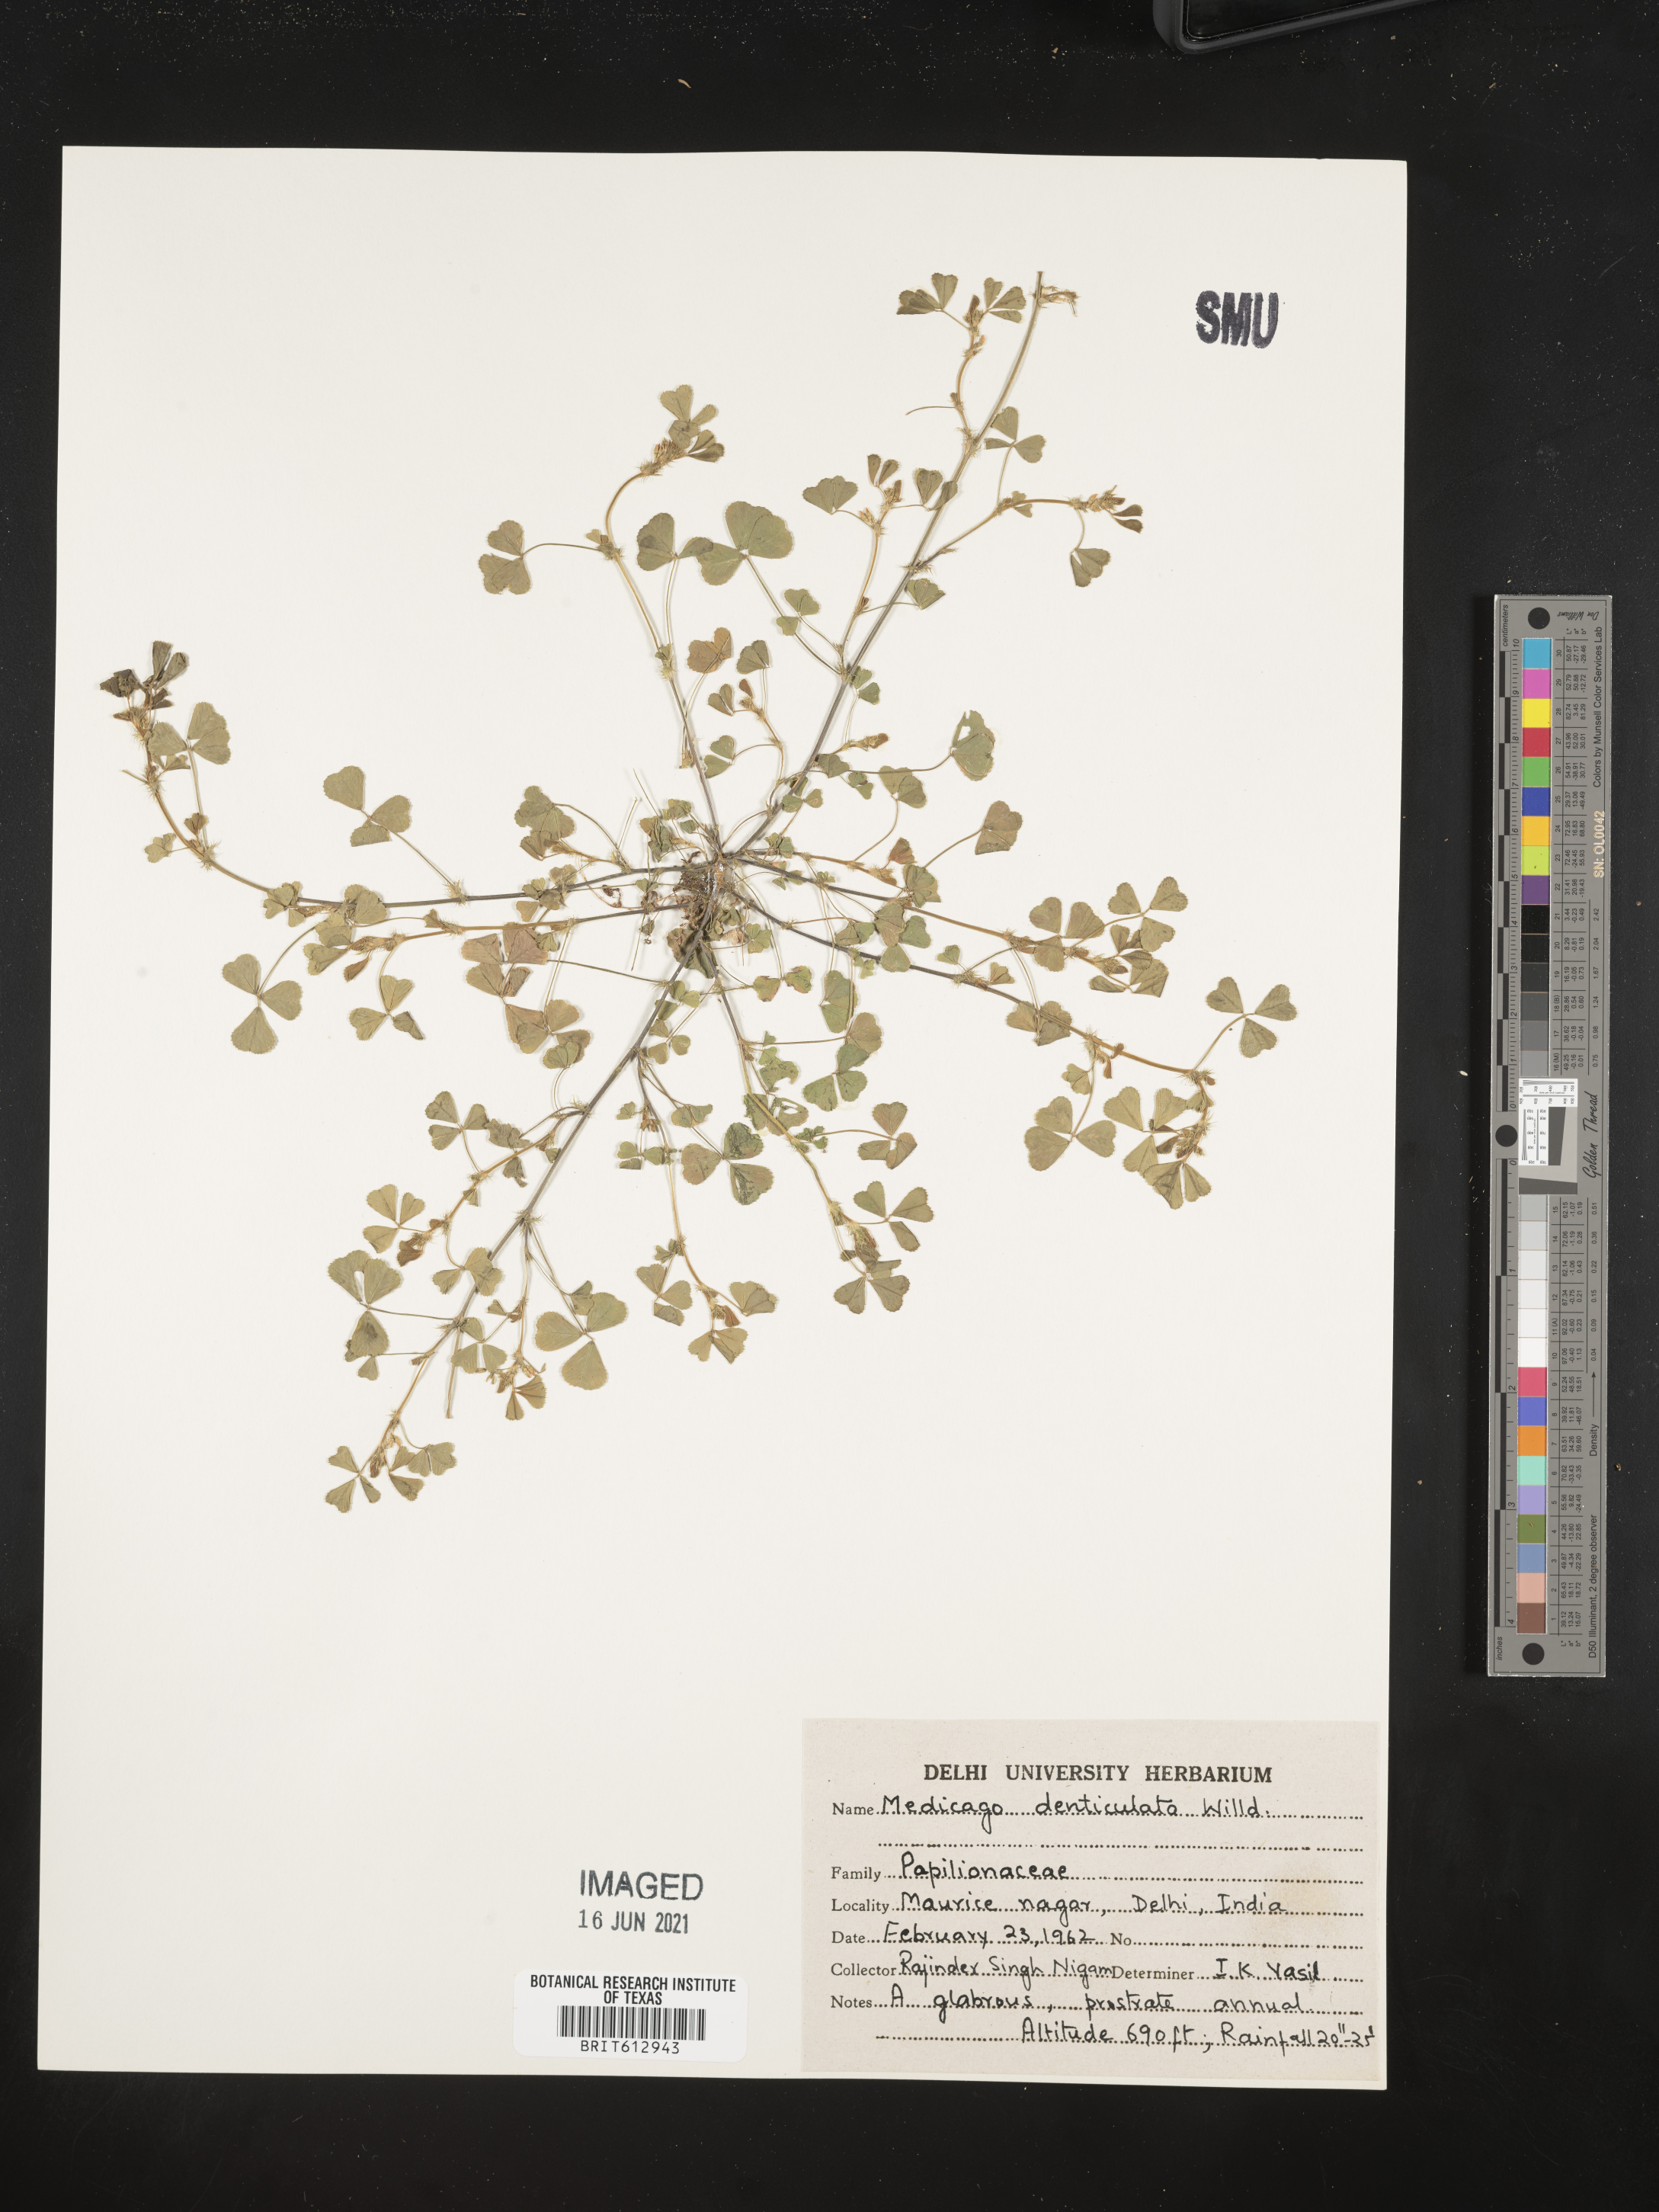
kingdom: Plantae
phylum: Tracheophyta
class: Magnoliopsida
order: Fabales
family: Fabaceae
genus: Medicago
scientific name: Medicago polymorpha
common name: Burclover
